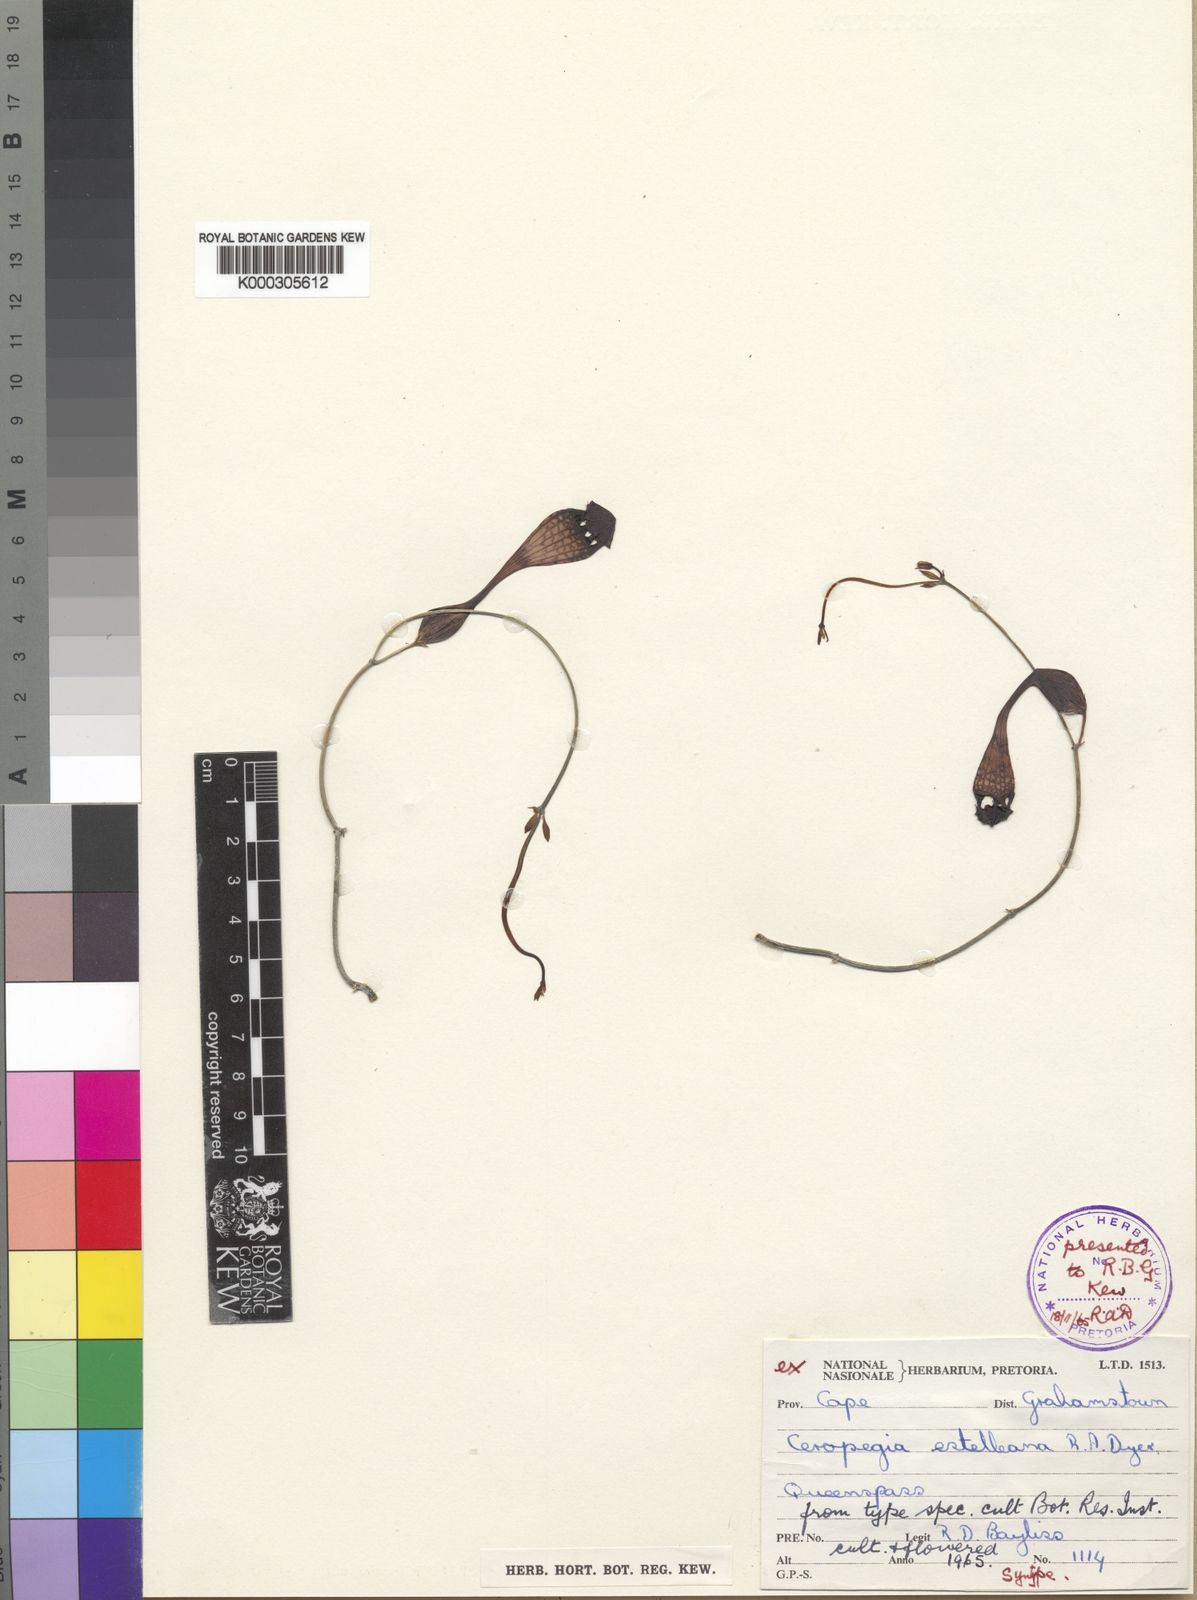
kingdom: Plantae
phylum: Tracheophyta
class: Magnoliopsida
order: Gentianales
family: Apocynaceae
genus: Ceropegia
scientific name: Ceropegia fimbriata
